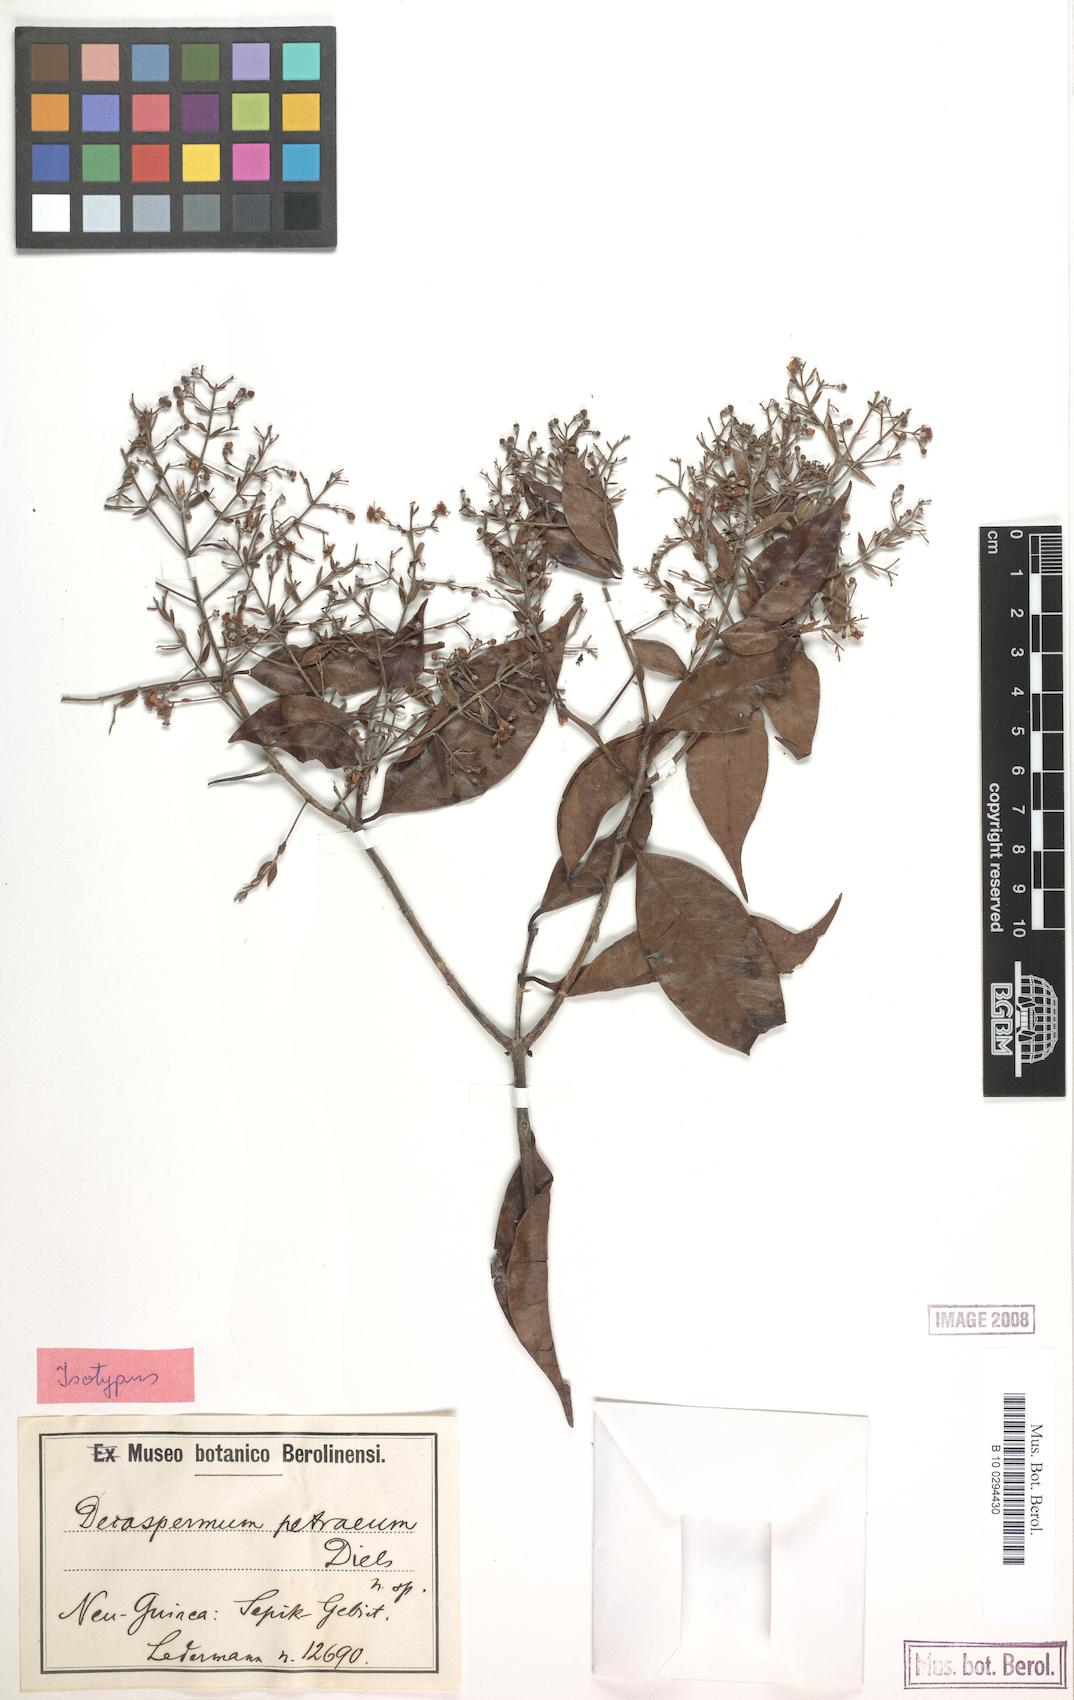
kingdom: Plantae
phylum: Tracheophyta
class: Magnoliopsida
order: Myrtales
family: Myrtaceae
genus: Decaspermum
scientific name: Decaspermum bracteatum
